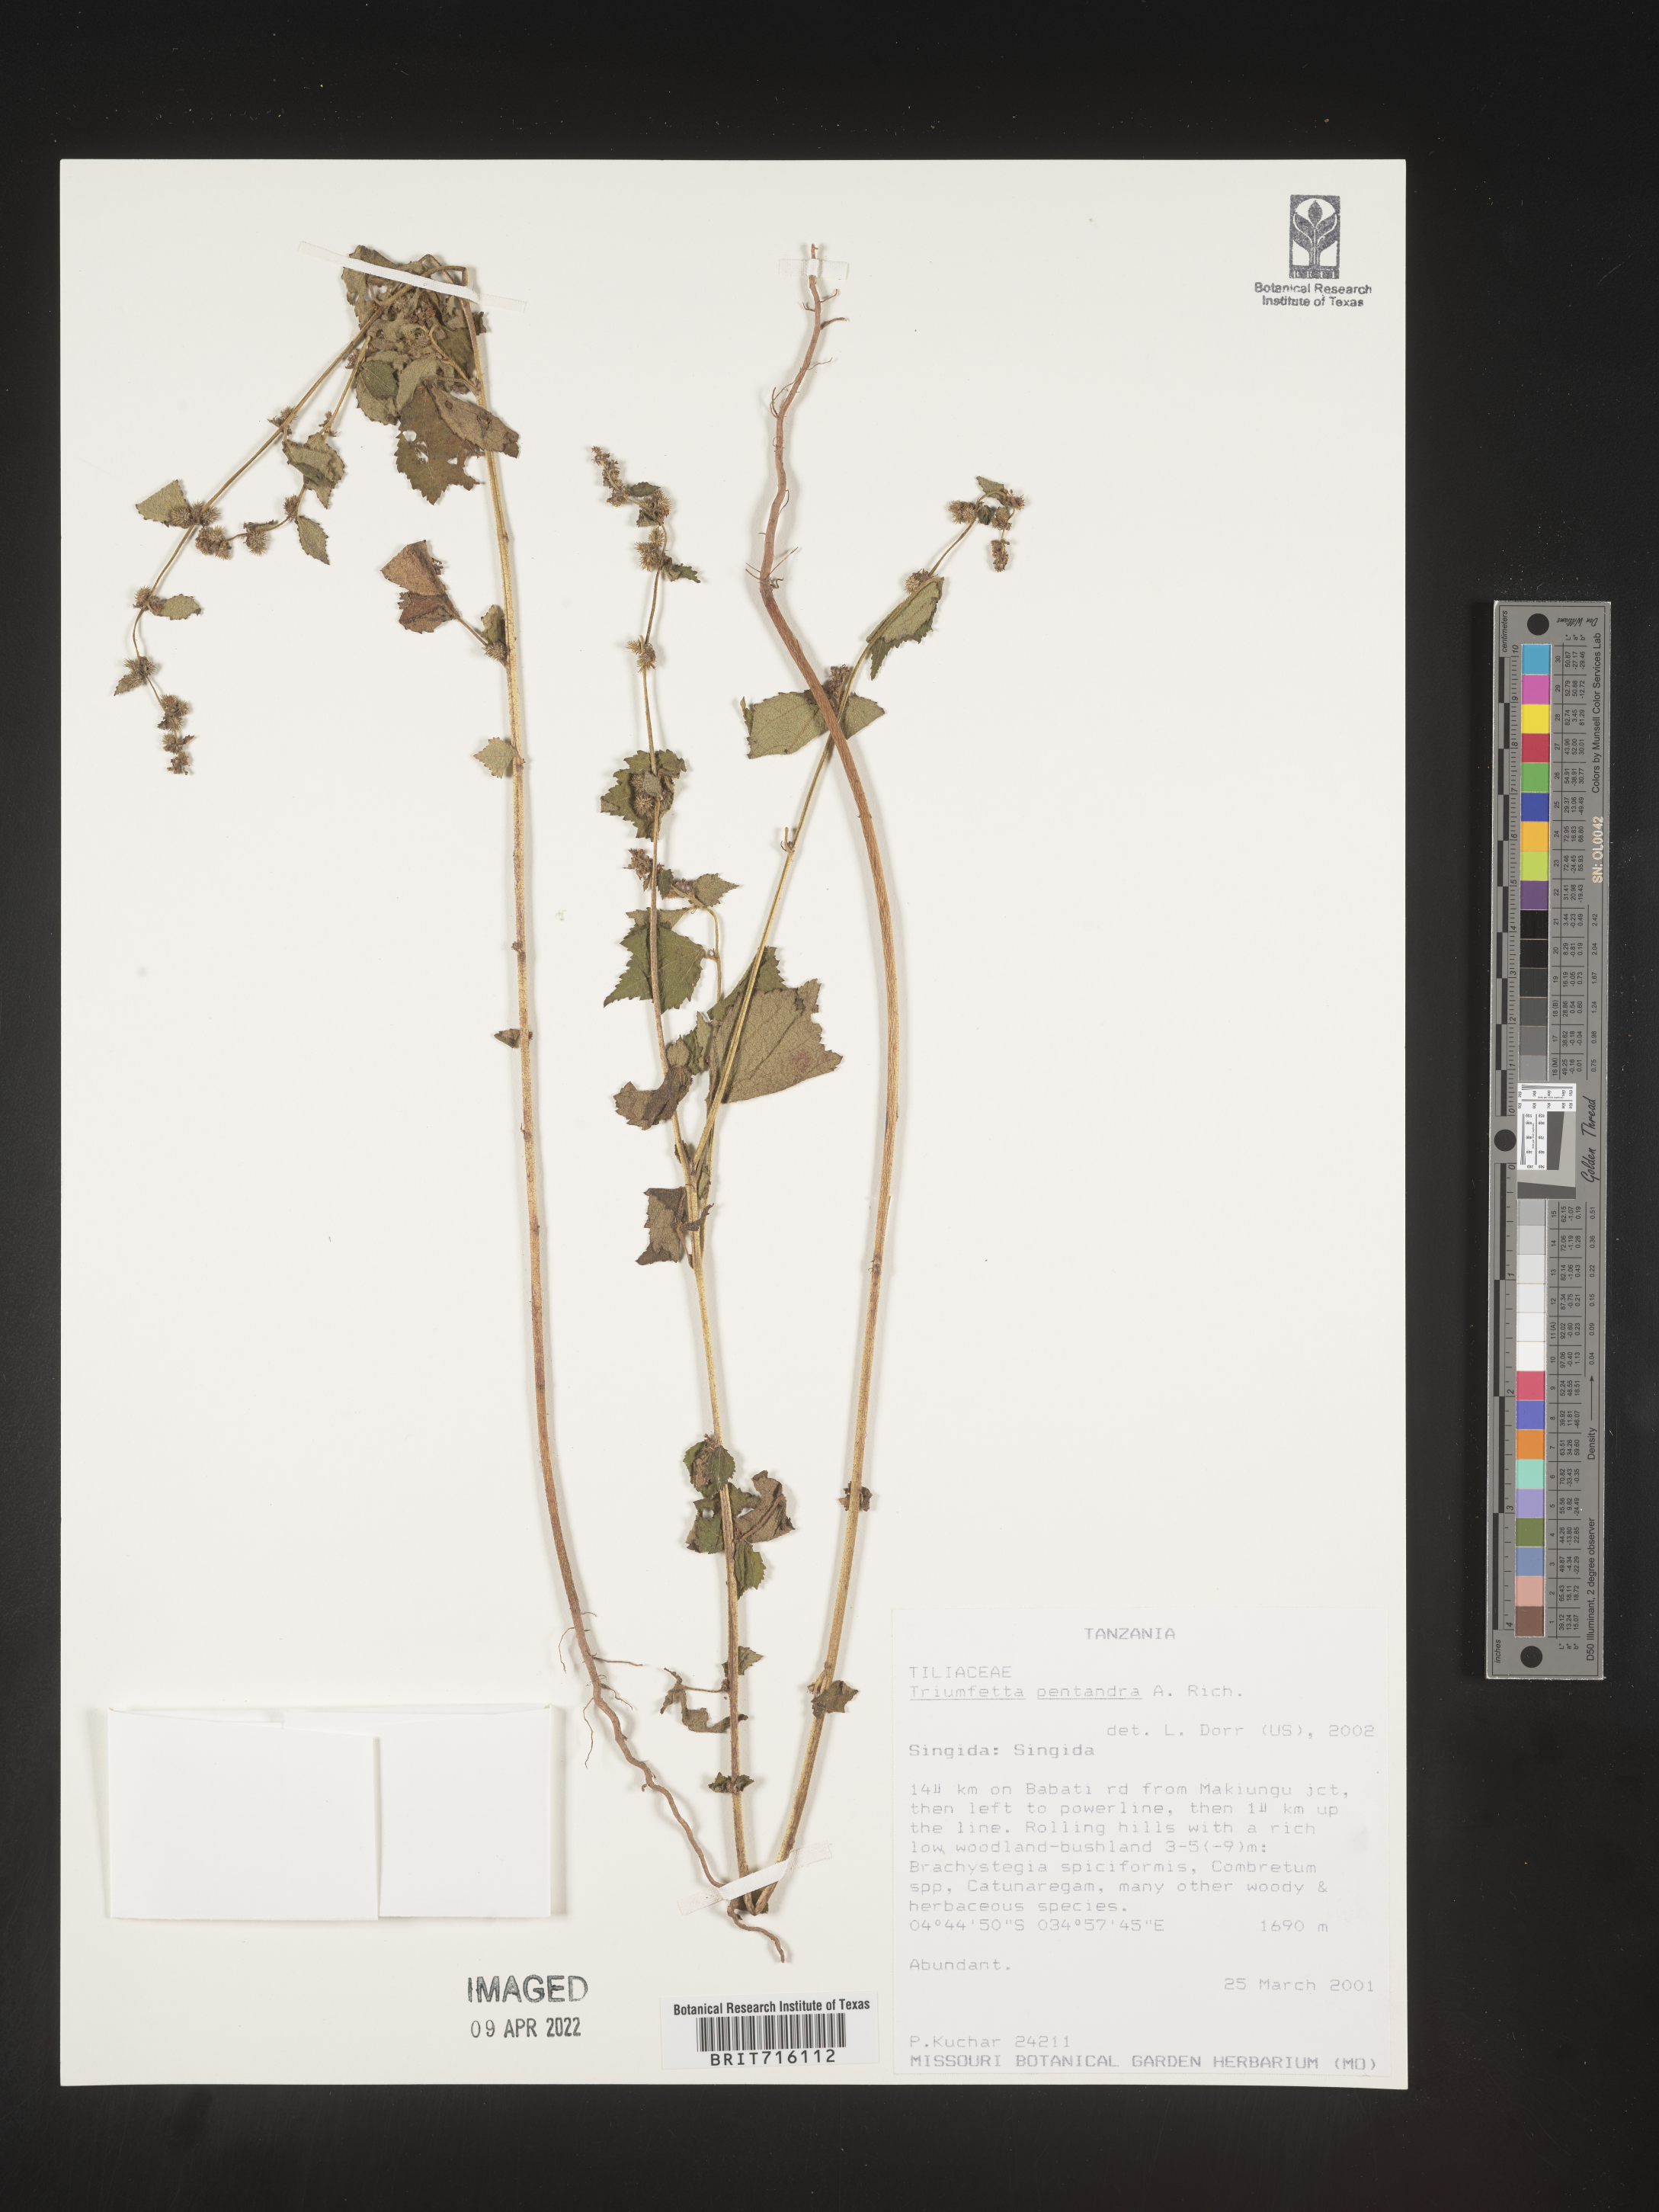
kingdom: Plantae
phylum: Tracheophyta
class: Magnoliopsida
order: Malvales
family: Malvaceae
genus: Triumfetta
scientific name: Triumfetta
